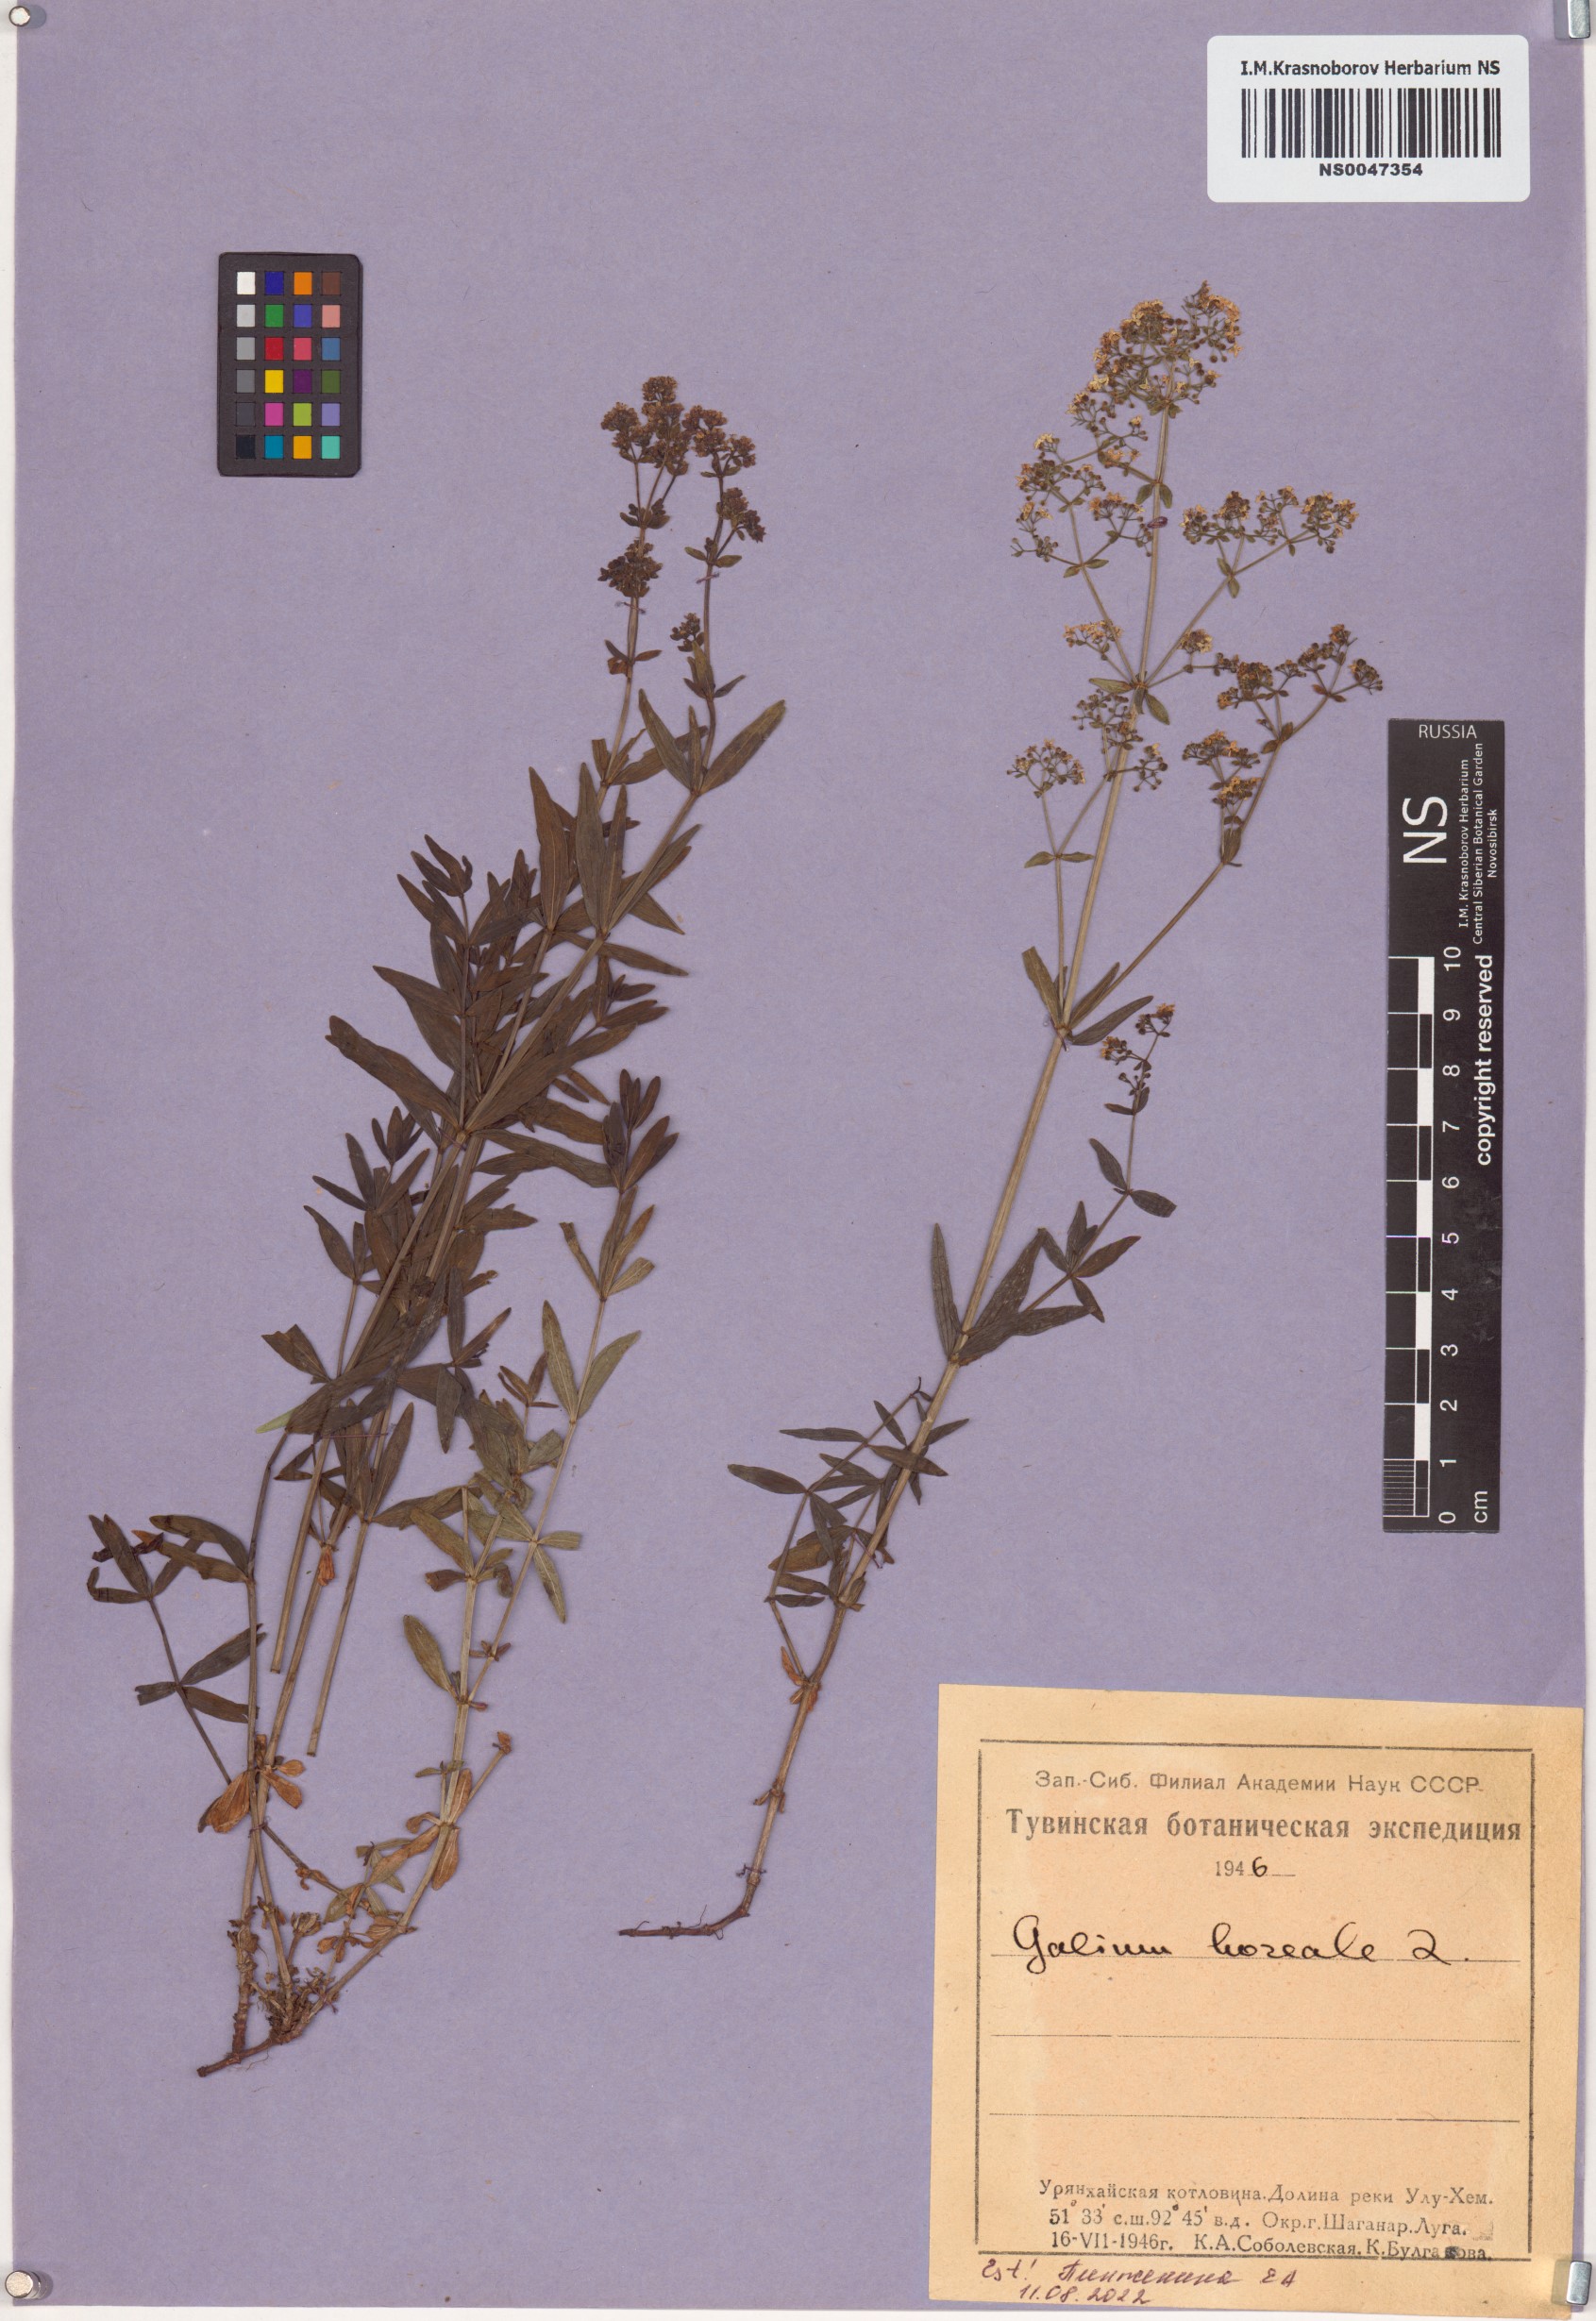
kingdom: Plantae
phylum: Tracheophyta
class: Magnoliopsida
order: Gentianales
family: Rubiaceae
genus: Galium
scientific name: Galium boreale
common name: Northern bedstraw
